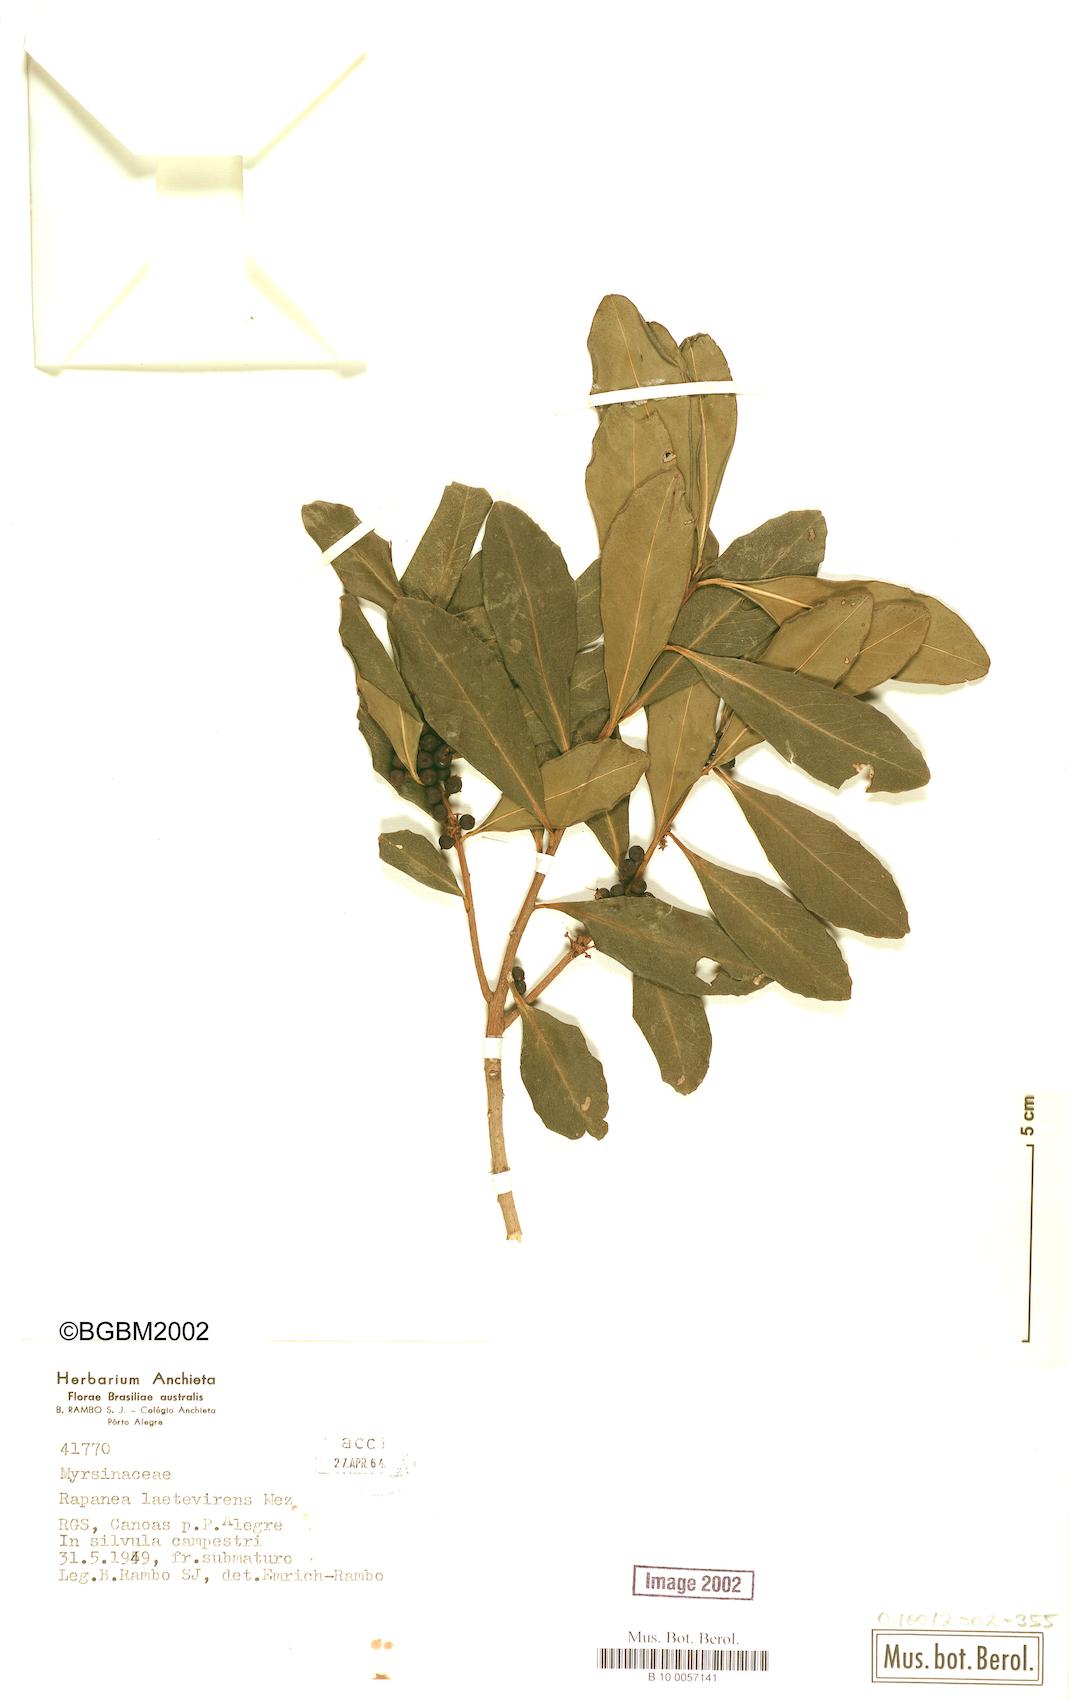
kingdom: Plantae
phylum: Tracheophyta
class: Magnoliopsida
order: Ericales
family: Primulaceae
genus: Myrsine
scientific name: Myrsine laetevirens
